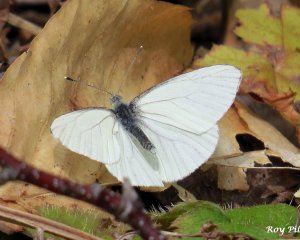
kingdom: Animalia
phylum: Arthropoda
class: Insecta
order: Lepidoptera
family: Pieridae
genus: Pieris
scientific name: Pieris
